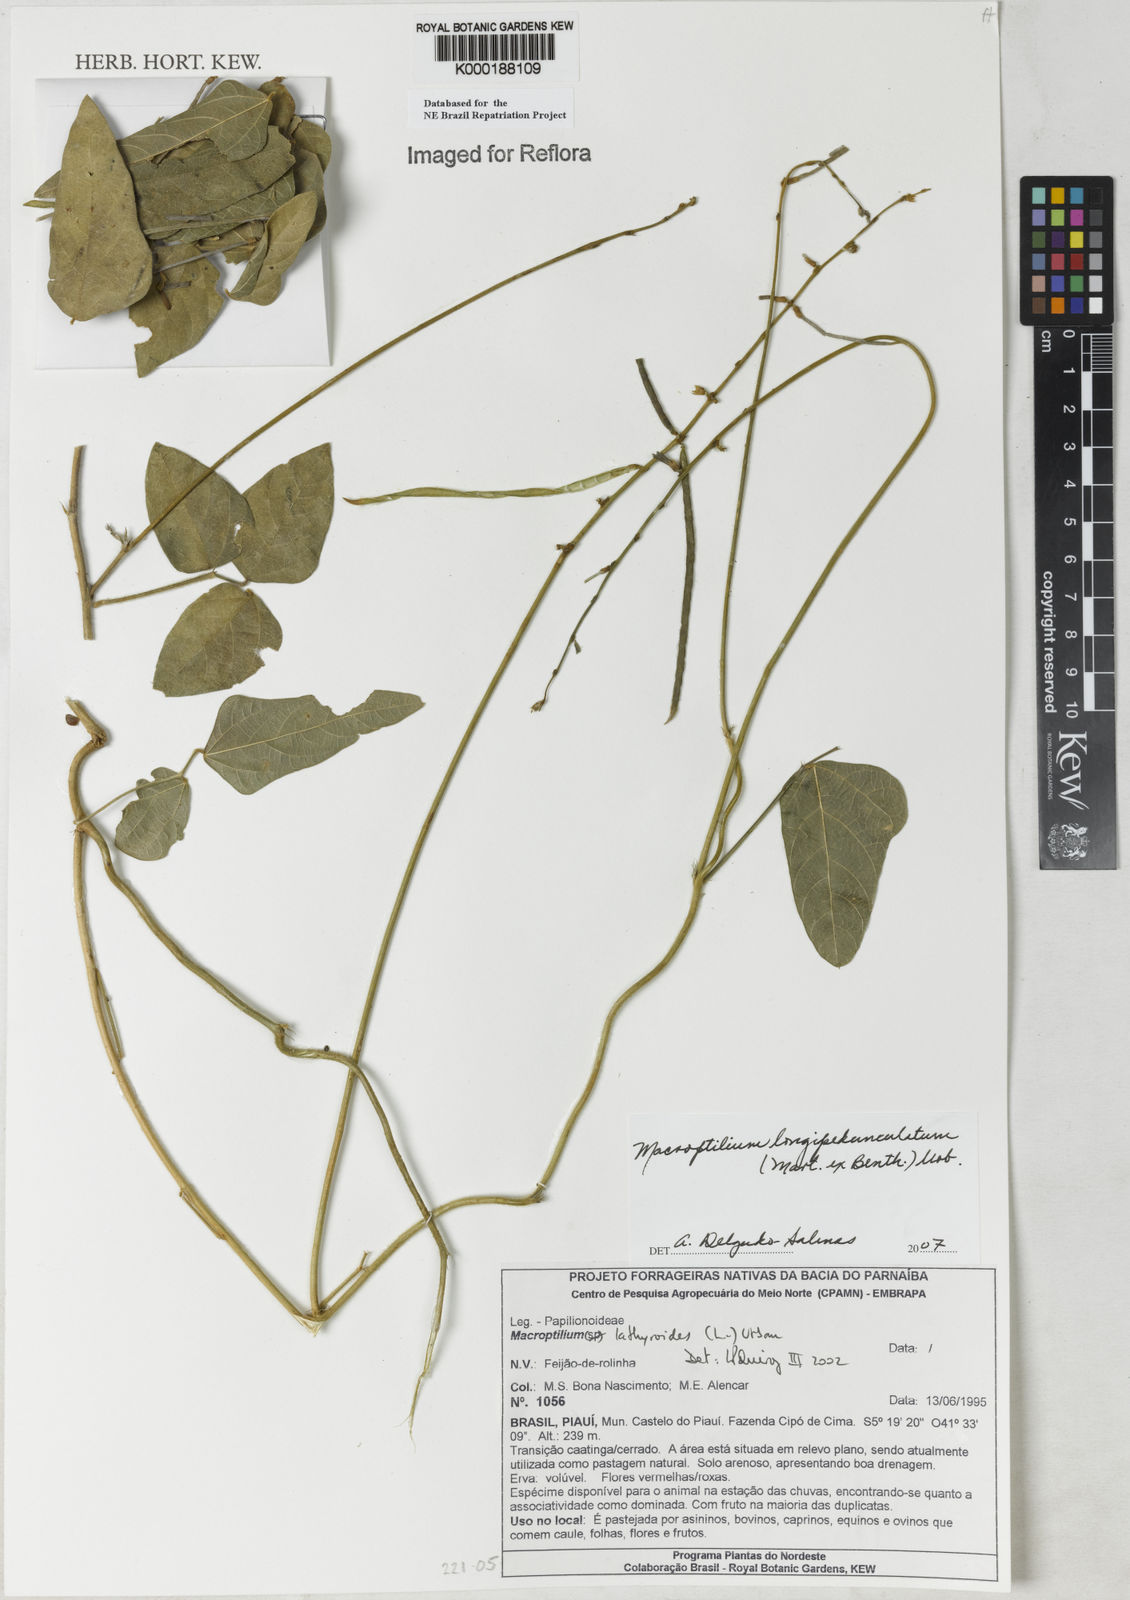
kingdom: Plantae
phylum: Tracheophyta
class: Magnoliopsida
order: Fabales
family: Fabaceae
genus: Macroptilium
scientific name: Macroptilium lathyroides
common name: Wild bushbean
